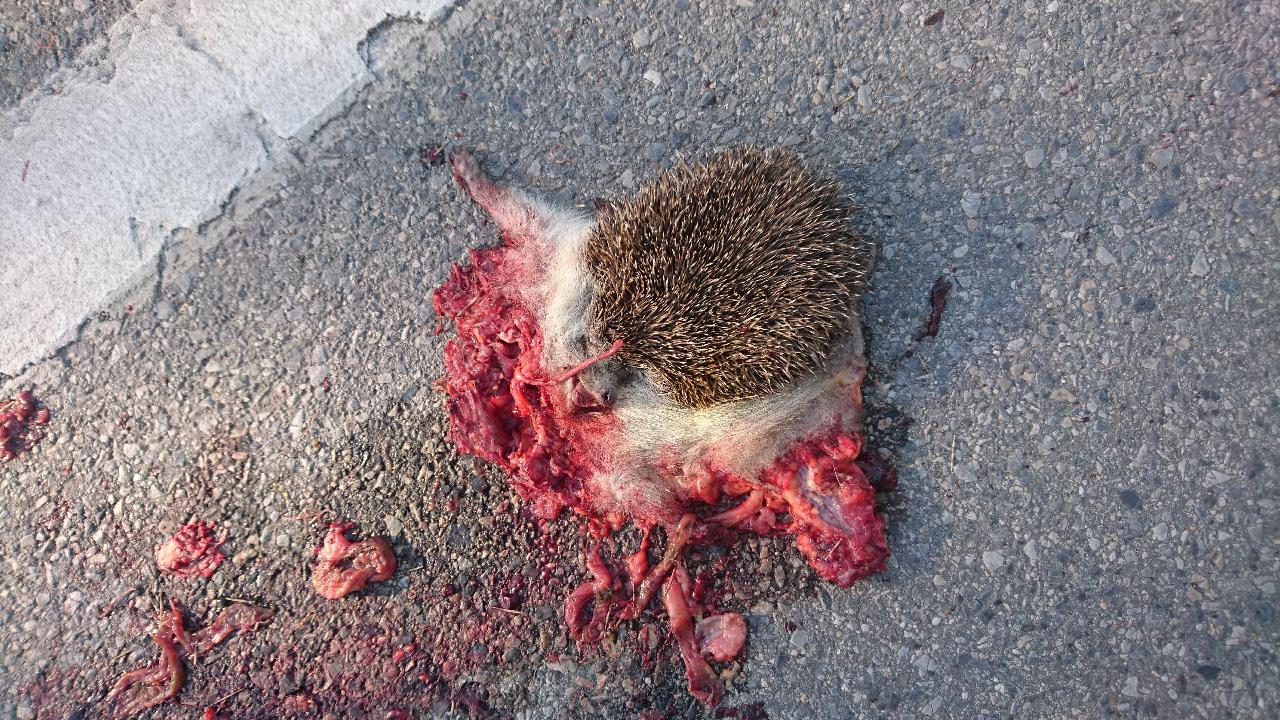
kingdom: Animalia
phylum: Chordata
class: Mammalia
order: Erinaceomorpha
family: Erinaceidae
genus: Erinaceus
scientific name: Erinaceus
